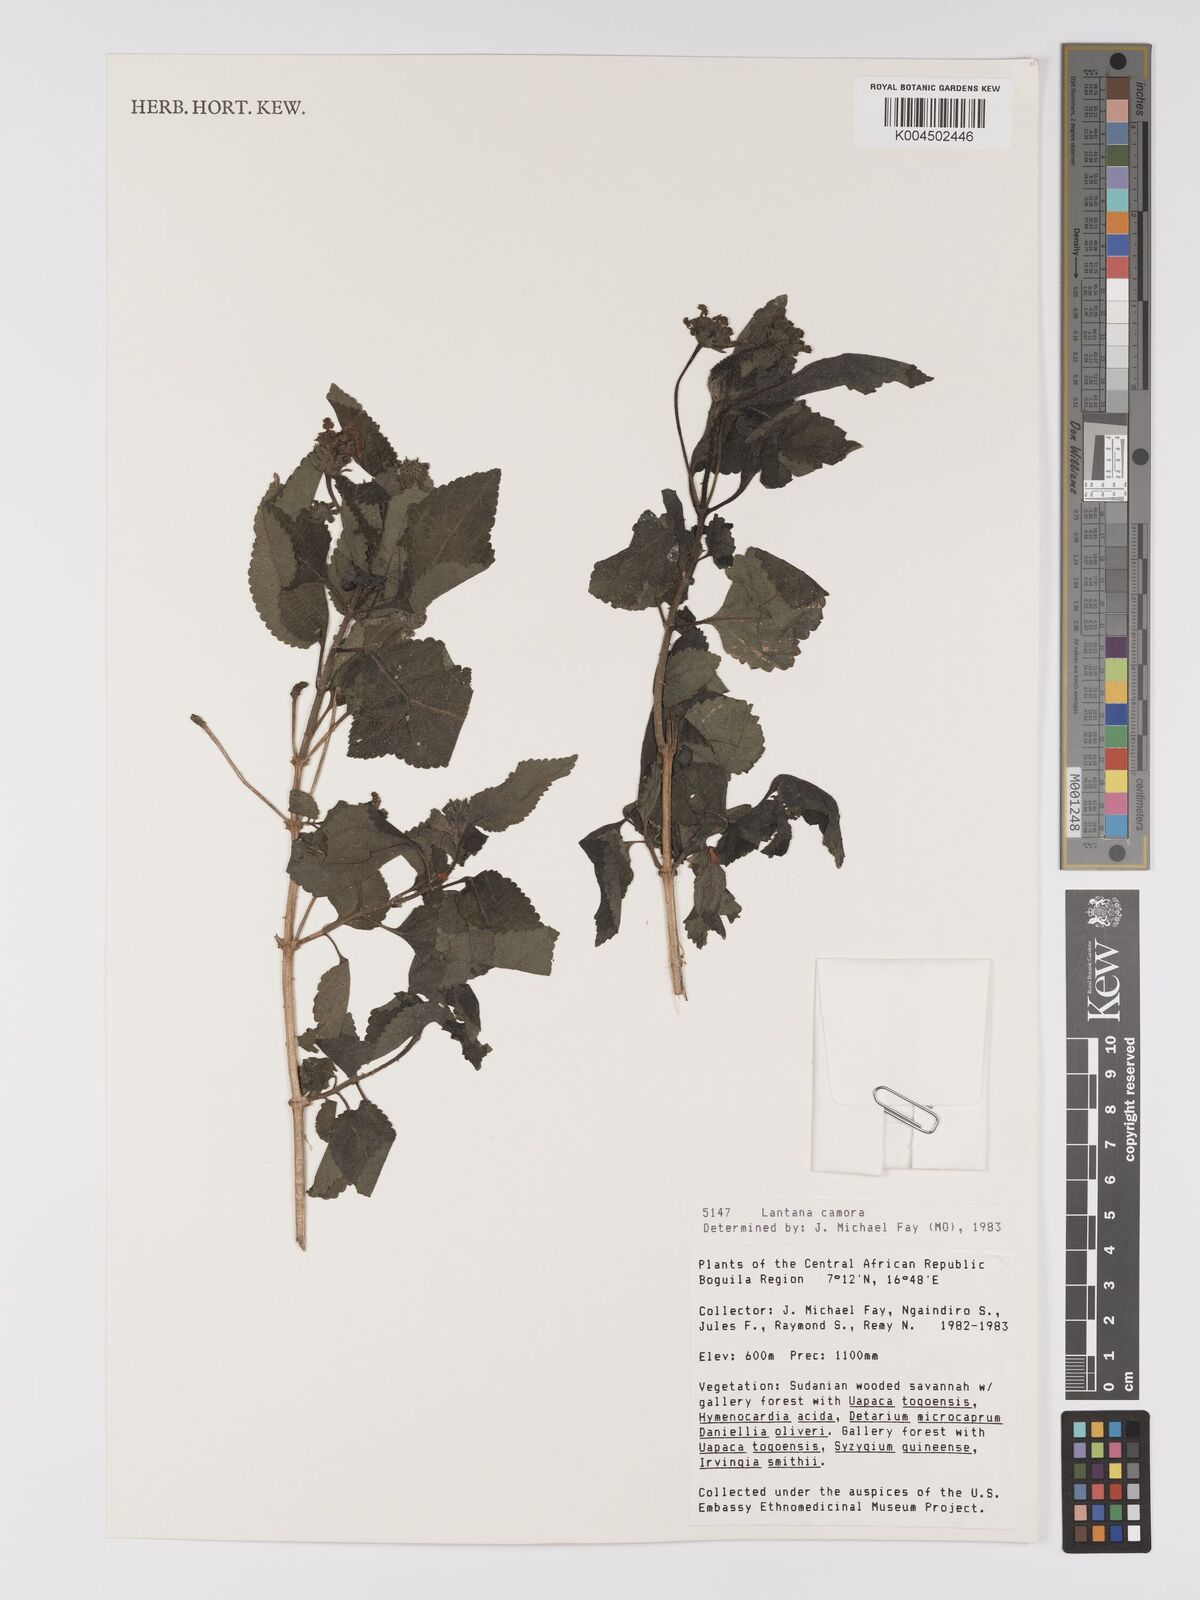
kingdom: Plantae
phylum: Tracheophyta
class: Magnoliopsida
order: Lamiales
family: Verbenaceae
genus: Lantana
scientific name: Lantana camara
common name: Lantana
